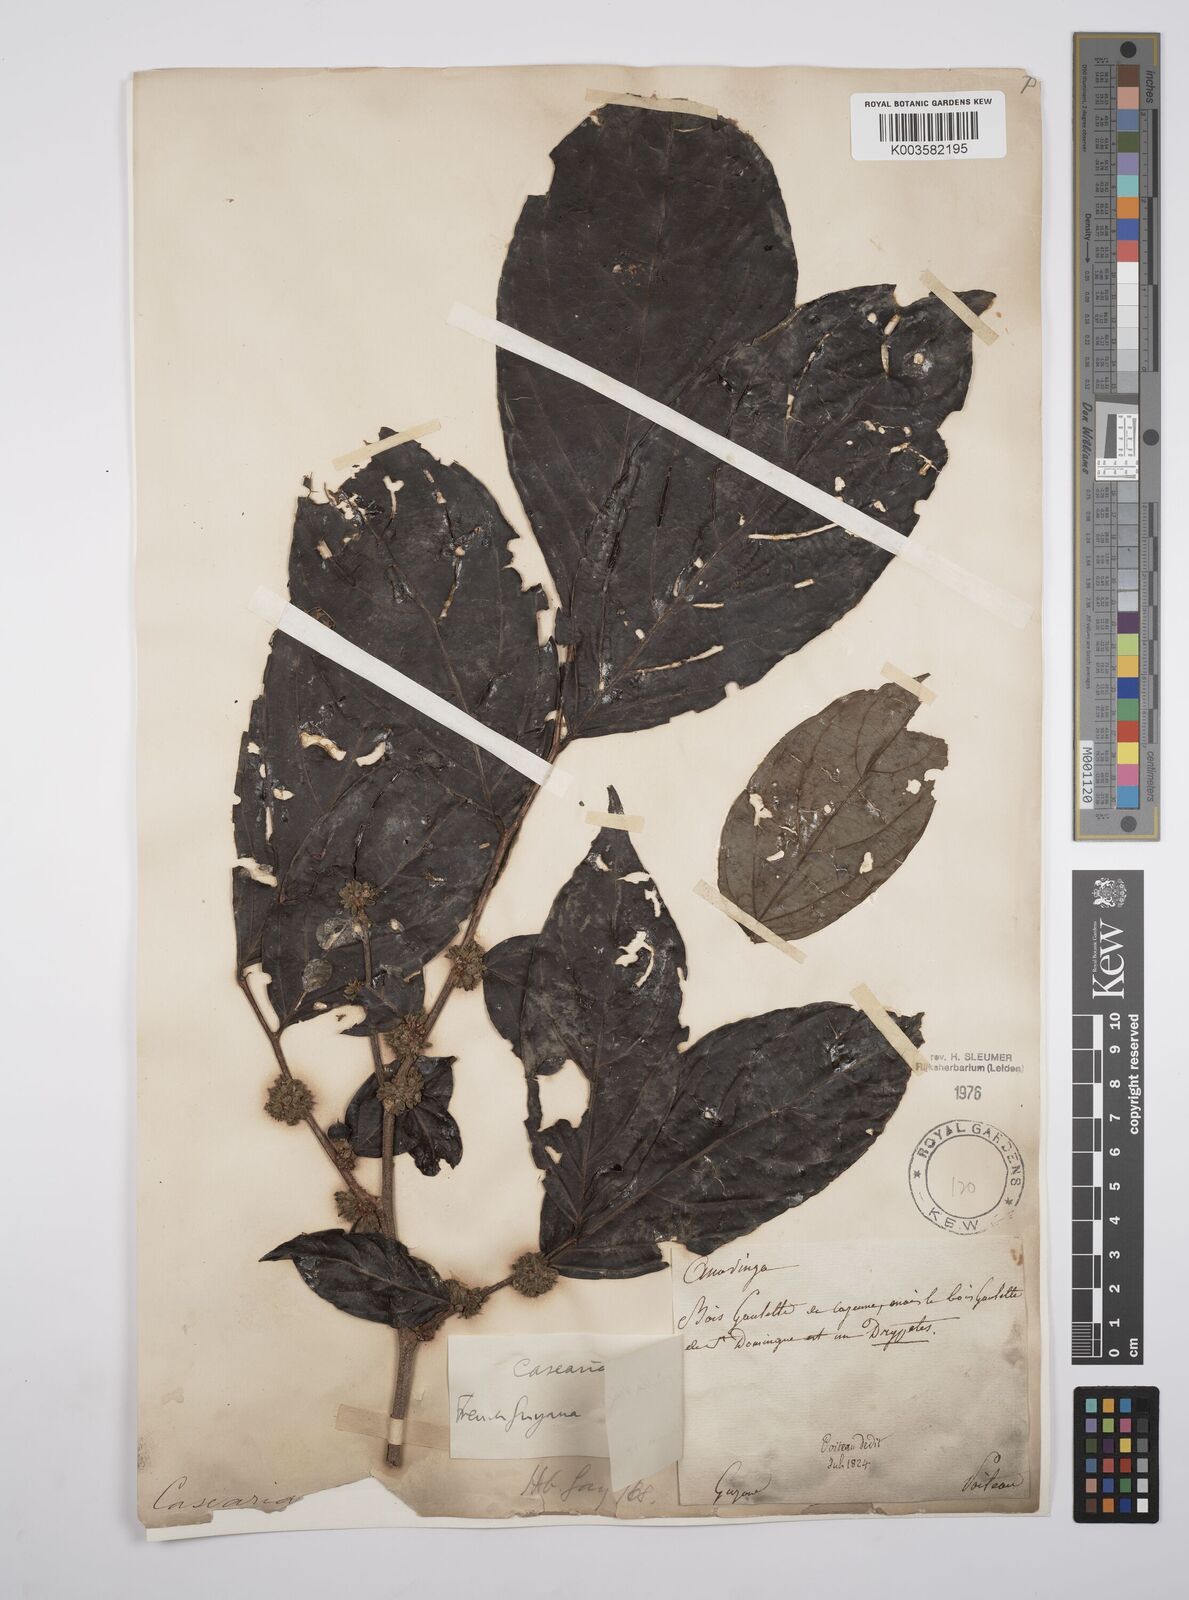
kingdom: Plantae
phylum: Tracheophyta
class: Magnoliopsida
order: Malpighiales
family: Salicaceae
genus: Casearia
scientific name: Casearia pitumba
